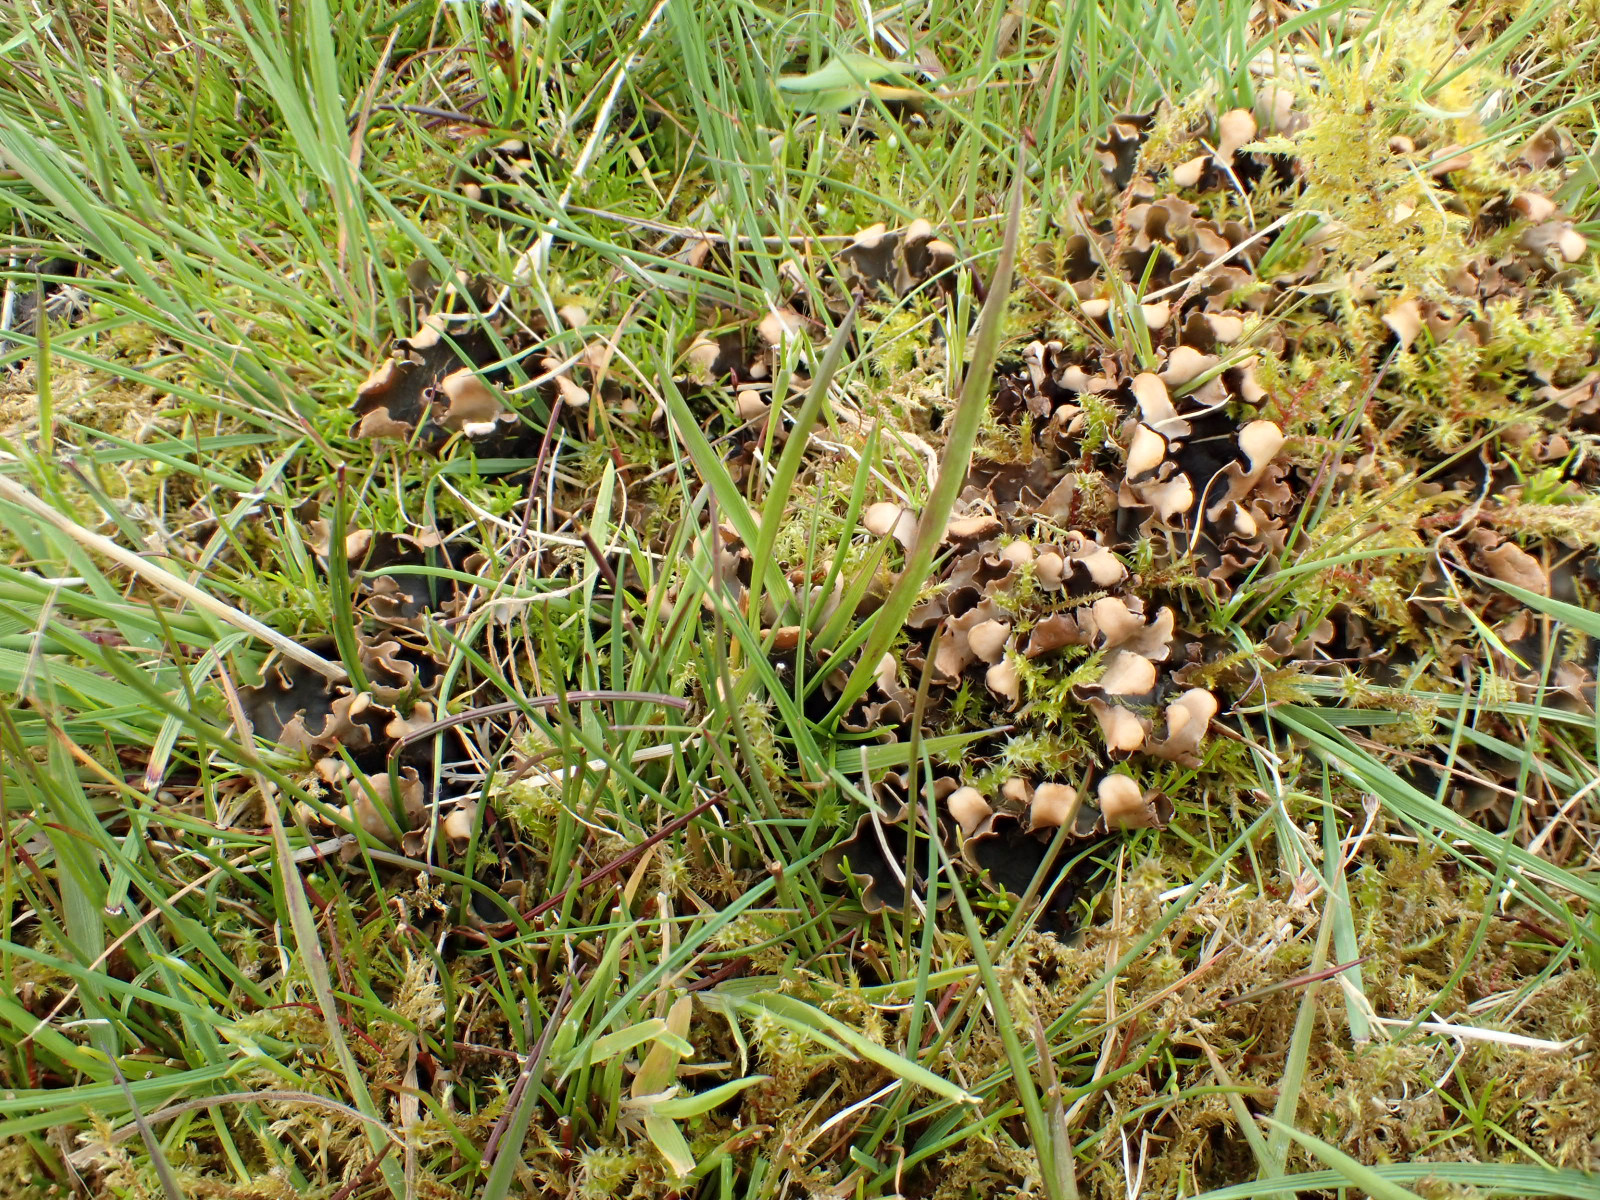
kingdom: Fungi
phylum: Ascomycota
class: Lecanoromycetes
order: Peltigerales
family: Peltigeraceae
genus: Peltigera
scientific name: Peltigera didactyla
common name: liden skjoldlav
